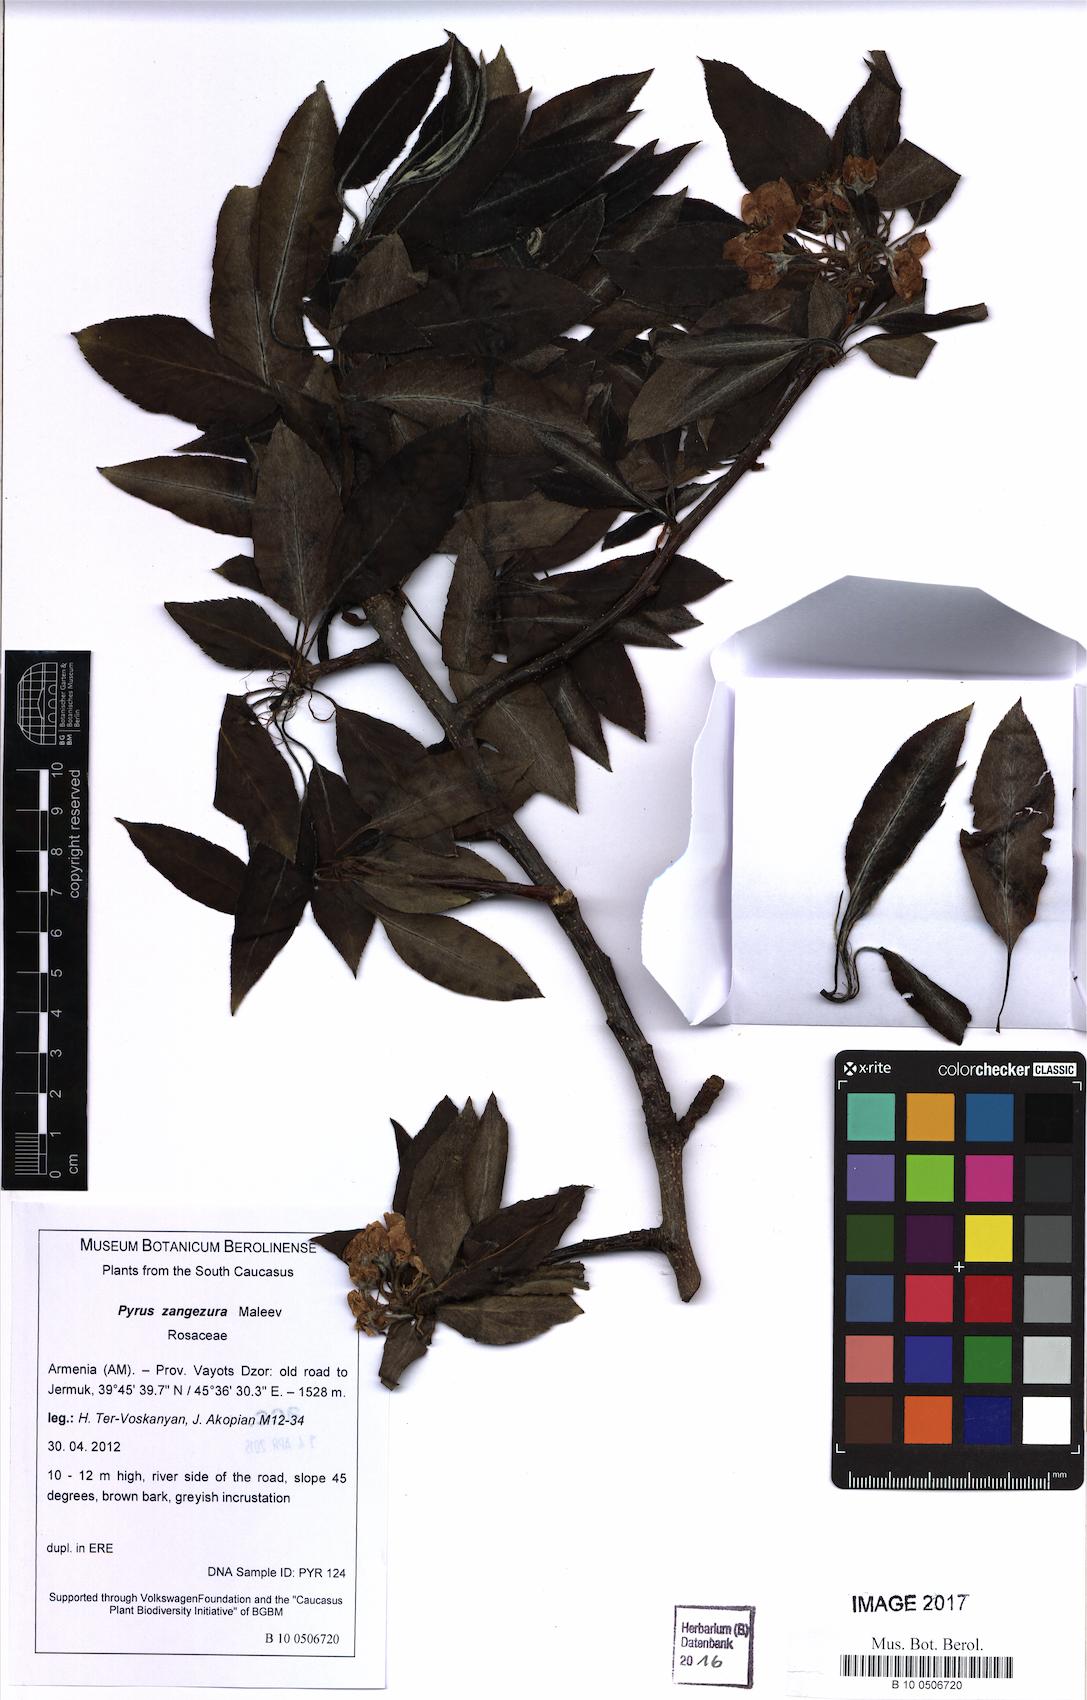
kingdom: Plantae
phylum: Tracheophyta
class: Magnoliopsida
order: Rosales
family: Rosaceae
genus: Pyrus
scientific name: Pyrus zangezura
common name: Zangezurian pear
